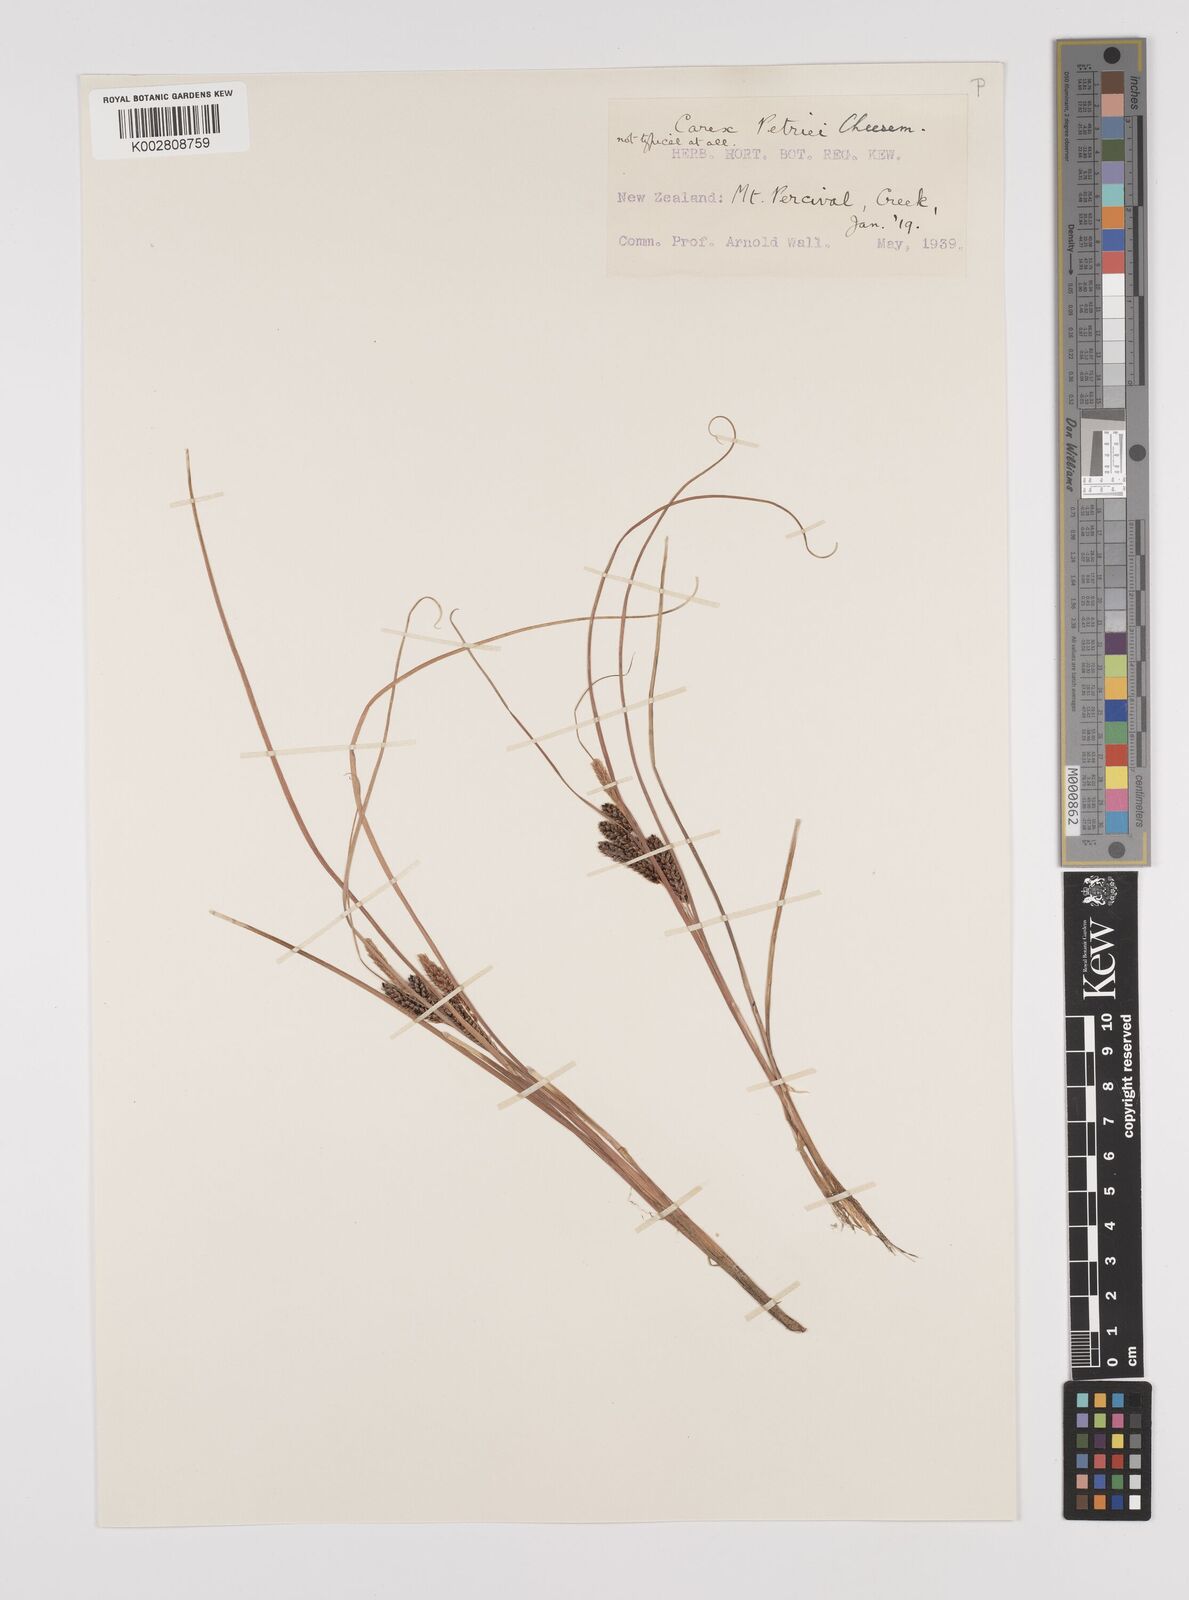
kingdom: Plantae
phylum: Tracheophyta
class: Liliopsida
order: Poales
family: Cyperaceae
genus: Carex
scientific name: Carex petriei
